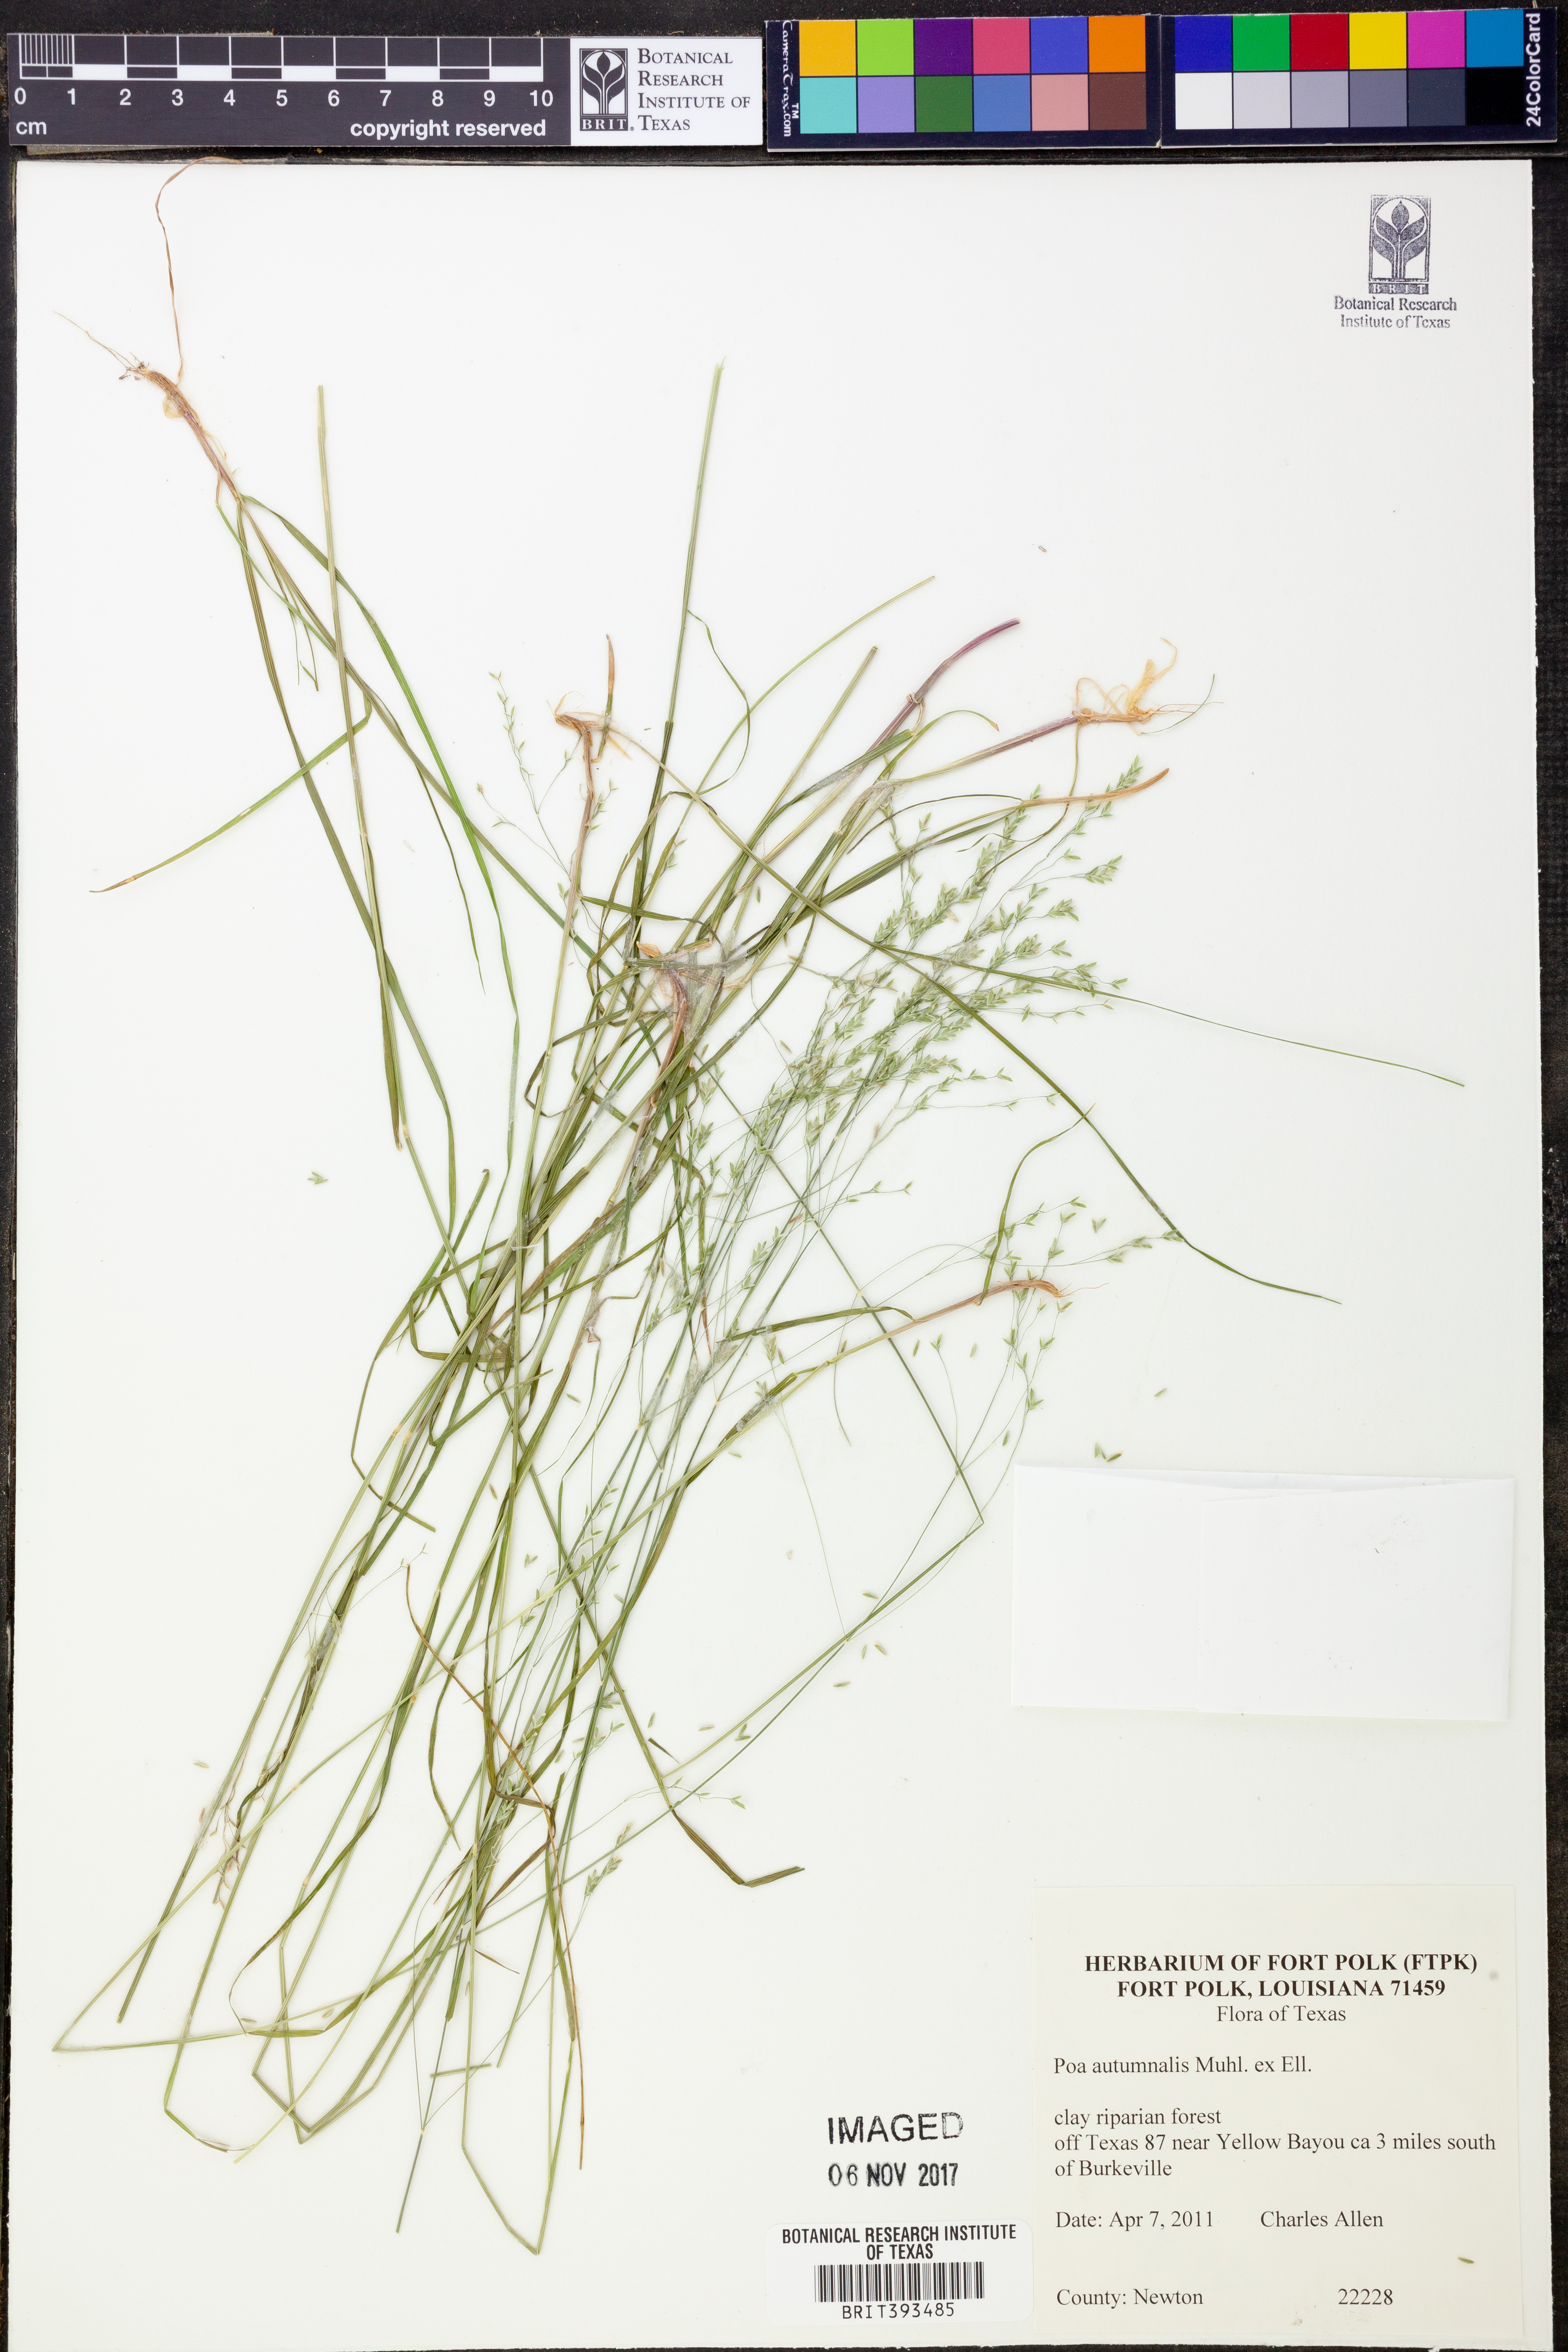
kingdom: Plantae
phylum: Tracheophyta
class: Liliopsida
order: Poales
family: Poaceae
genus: Poa
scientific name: Poa autumnalis
